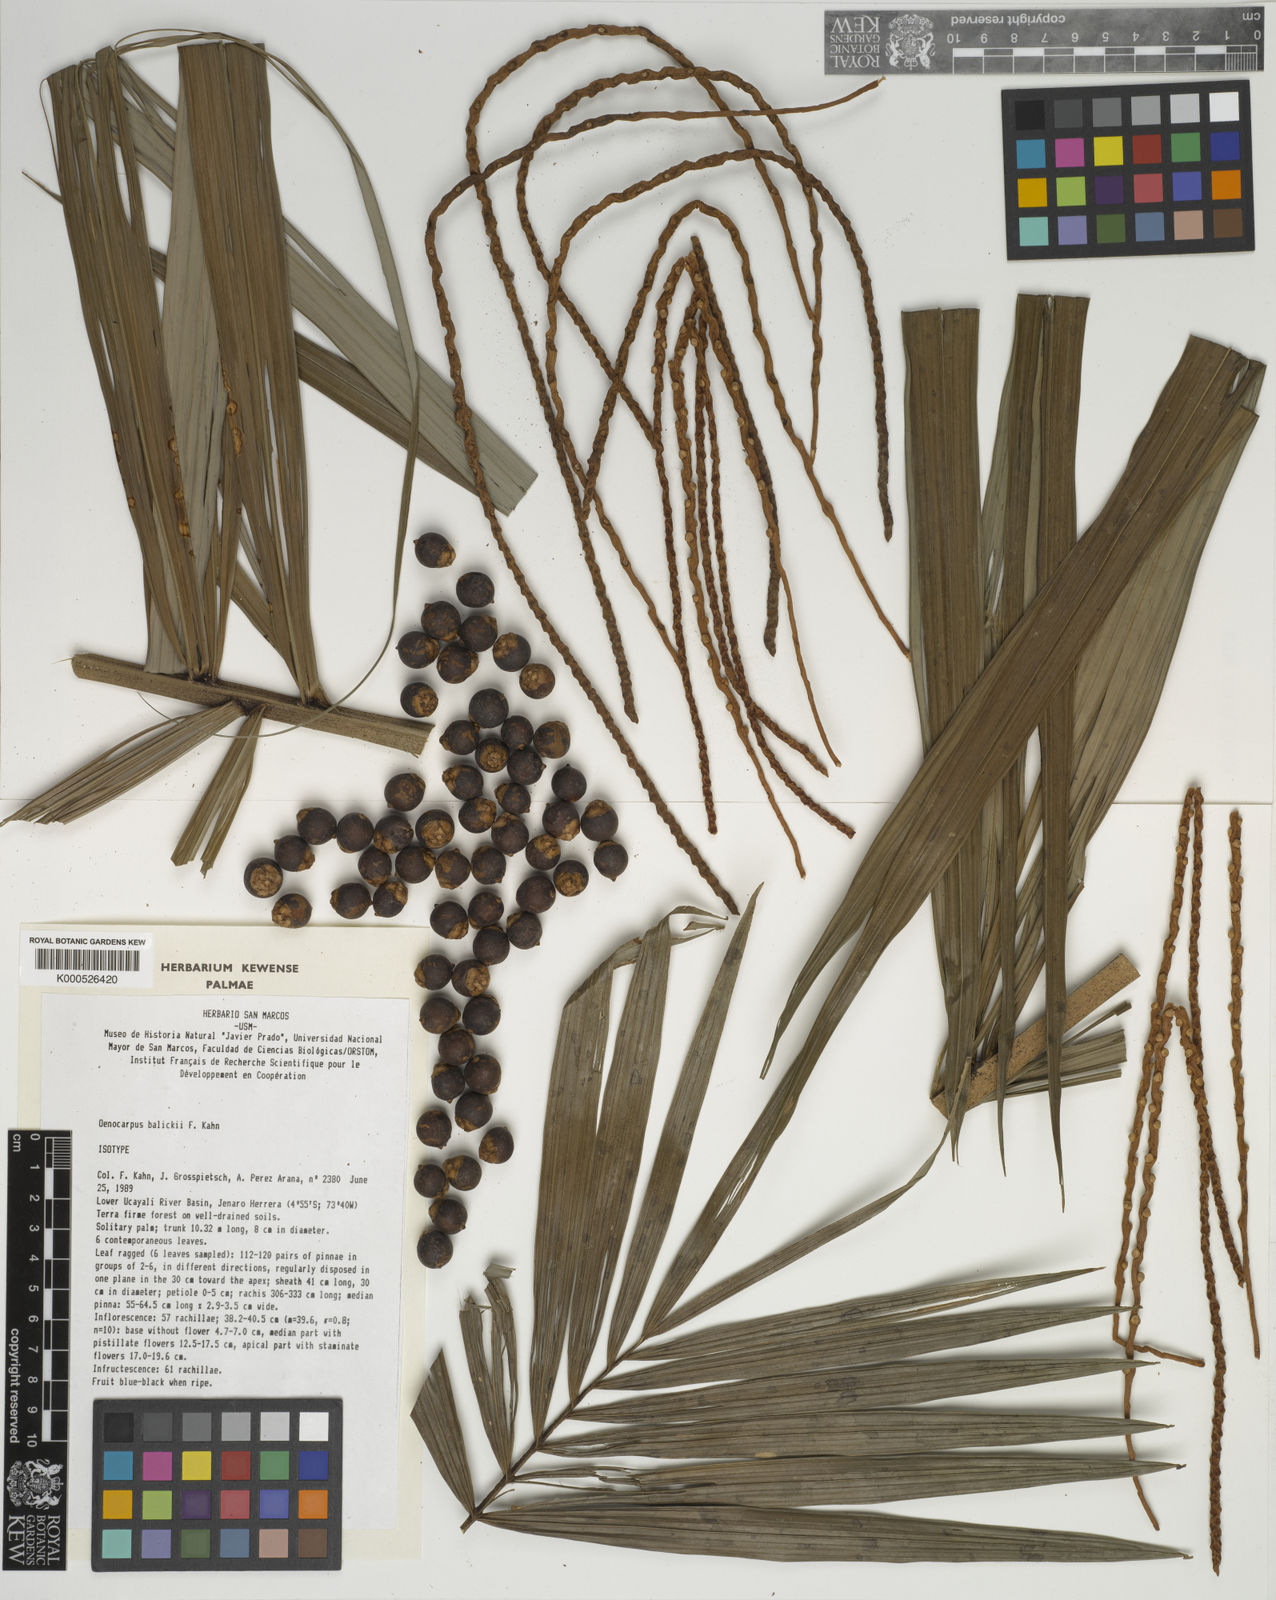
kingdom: Plantae
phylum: Tracheophyta
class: Liliopsida
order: Arecales
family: Arecaceae
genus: Oenocarpus
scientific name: Oenocarpus balickii
